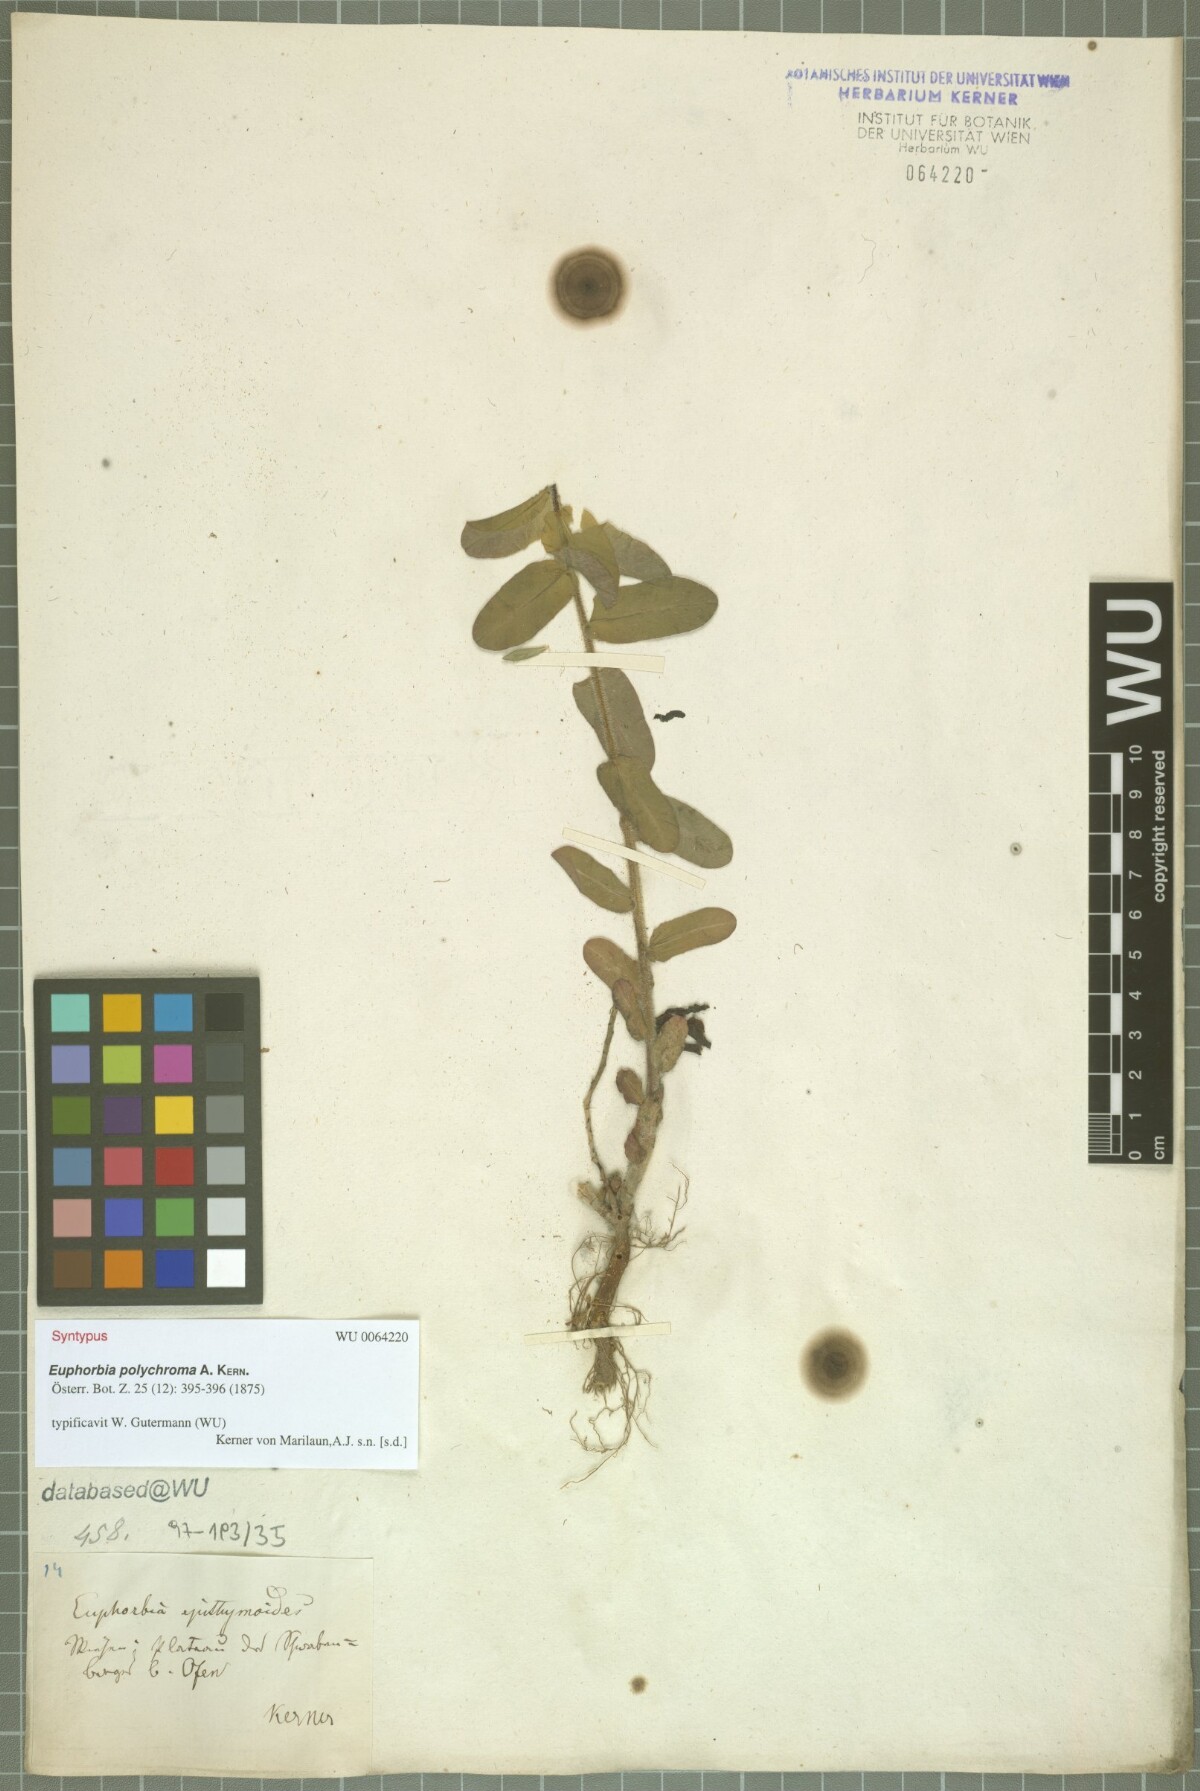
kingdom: Plantae
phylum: Tracheophyta
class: Magnoliopsida
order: Malpighiales
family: Euphorbiaceae
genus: Euphorbia
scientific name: Euphorbia epithymoides
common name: Cushion spurge
